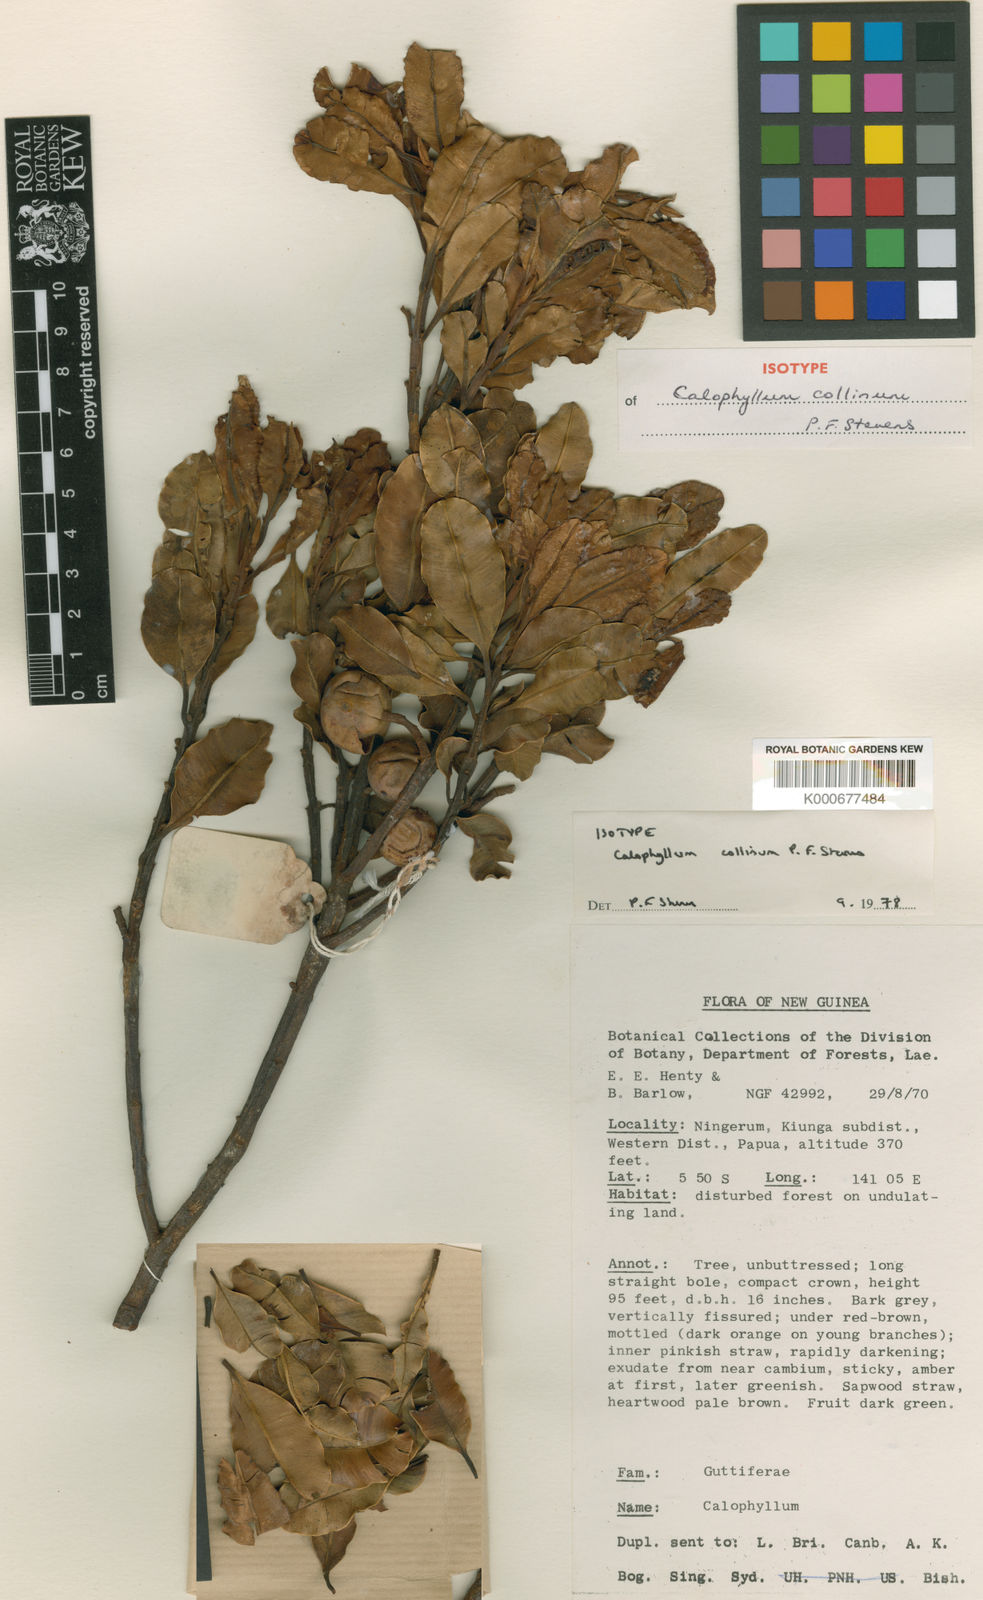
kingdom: Plantae
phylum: Tracheophyta
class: Magnoliopsida
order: Malpighiales
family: Calophyllaceae
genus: Calophyllum
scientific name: Calophyllum collinum
